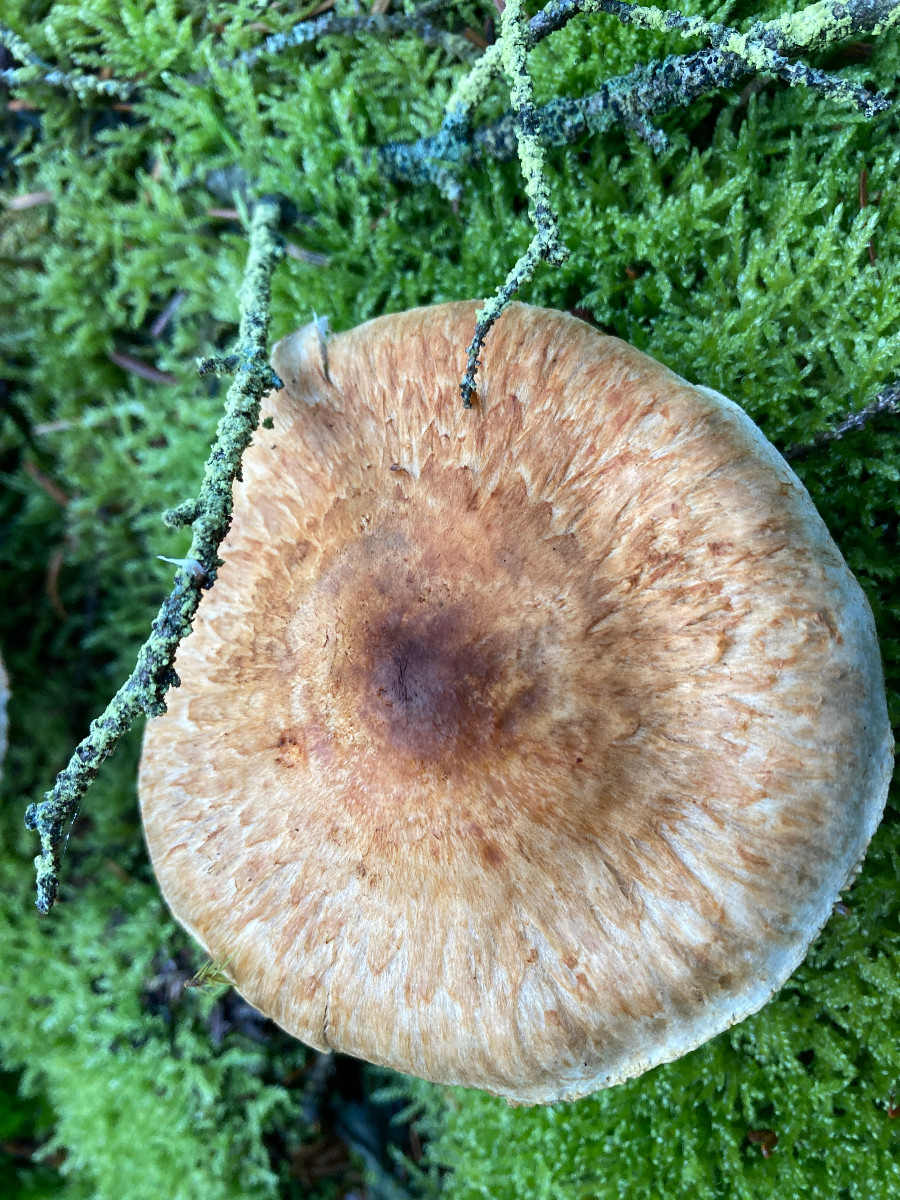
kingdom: Fungi
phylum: Basidiomycota
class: Agaricomycetes
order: Agaricales
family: Tricholomataceae
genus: Tricholoma
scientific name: Tricholoma focale
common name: halsbånd-ridderhat
